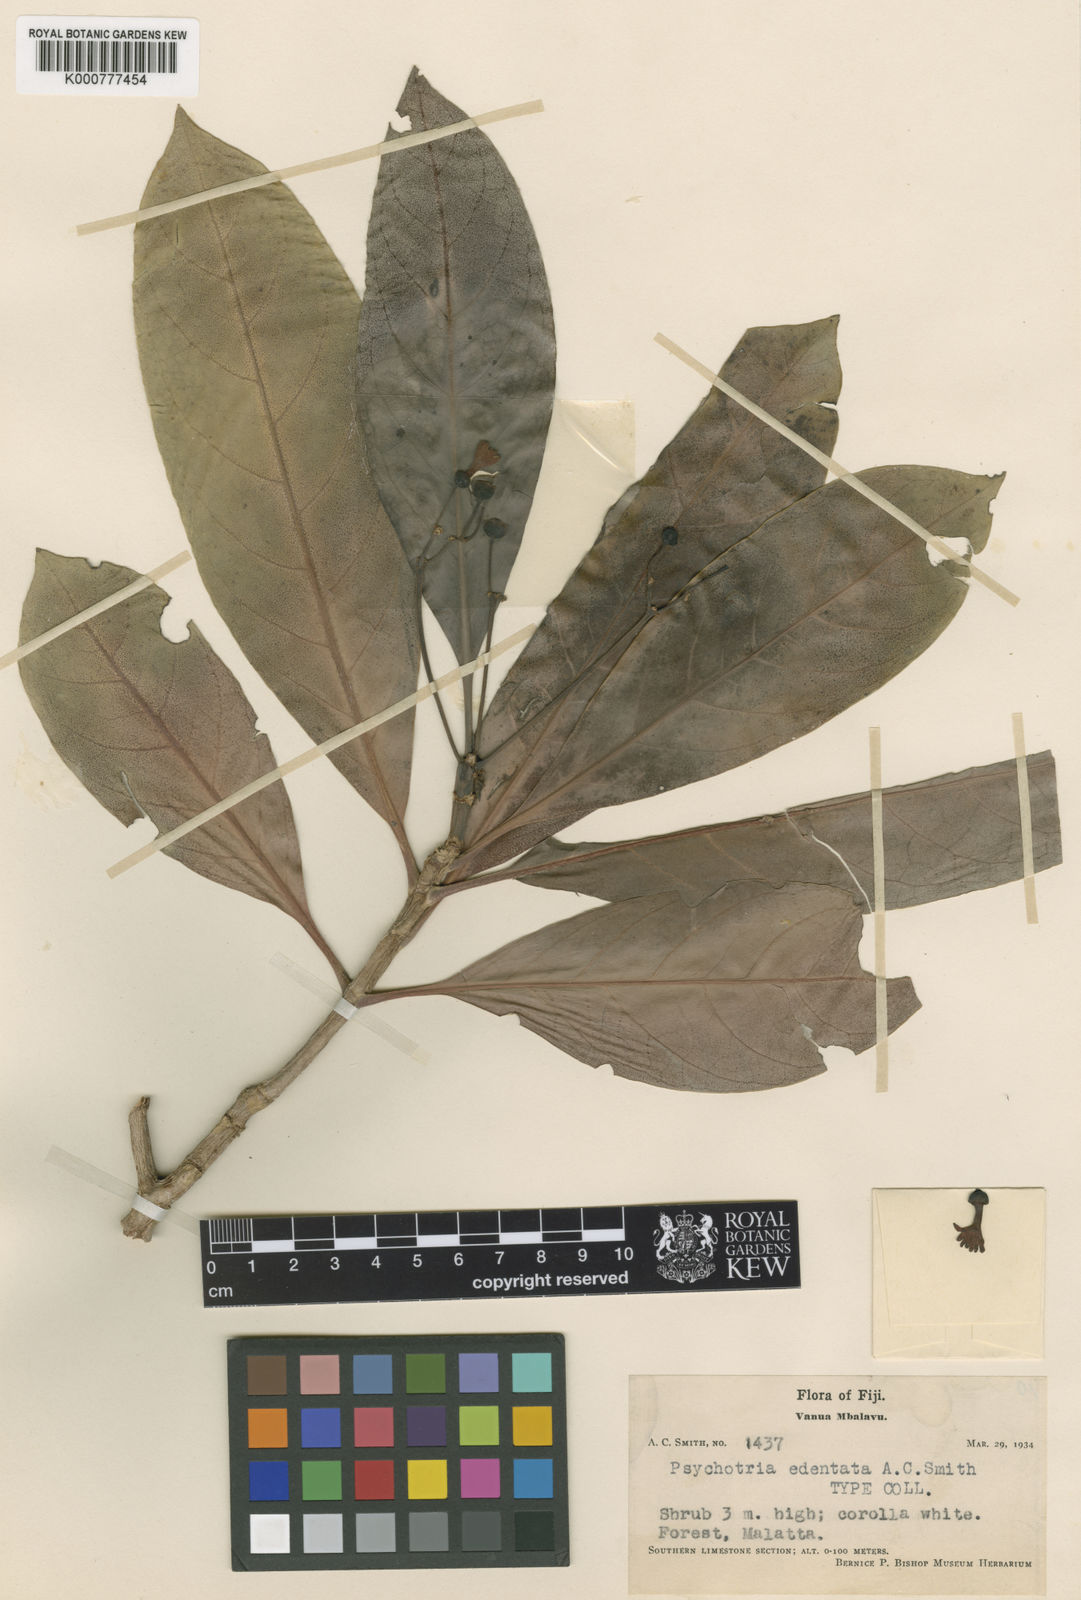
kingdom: Plantae
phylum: Tracheophyta
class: Magnoliopsida
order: Gentianales
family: Rubiaceae
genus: Psychotria
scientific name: Psychotria edentata
